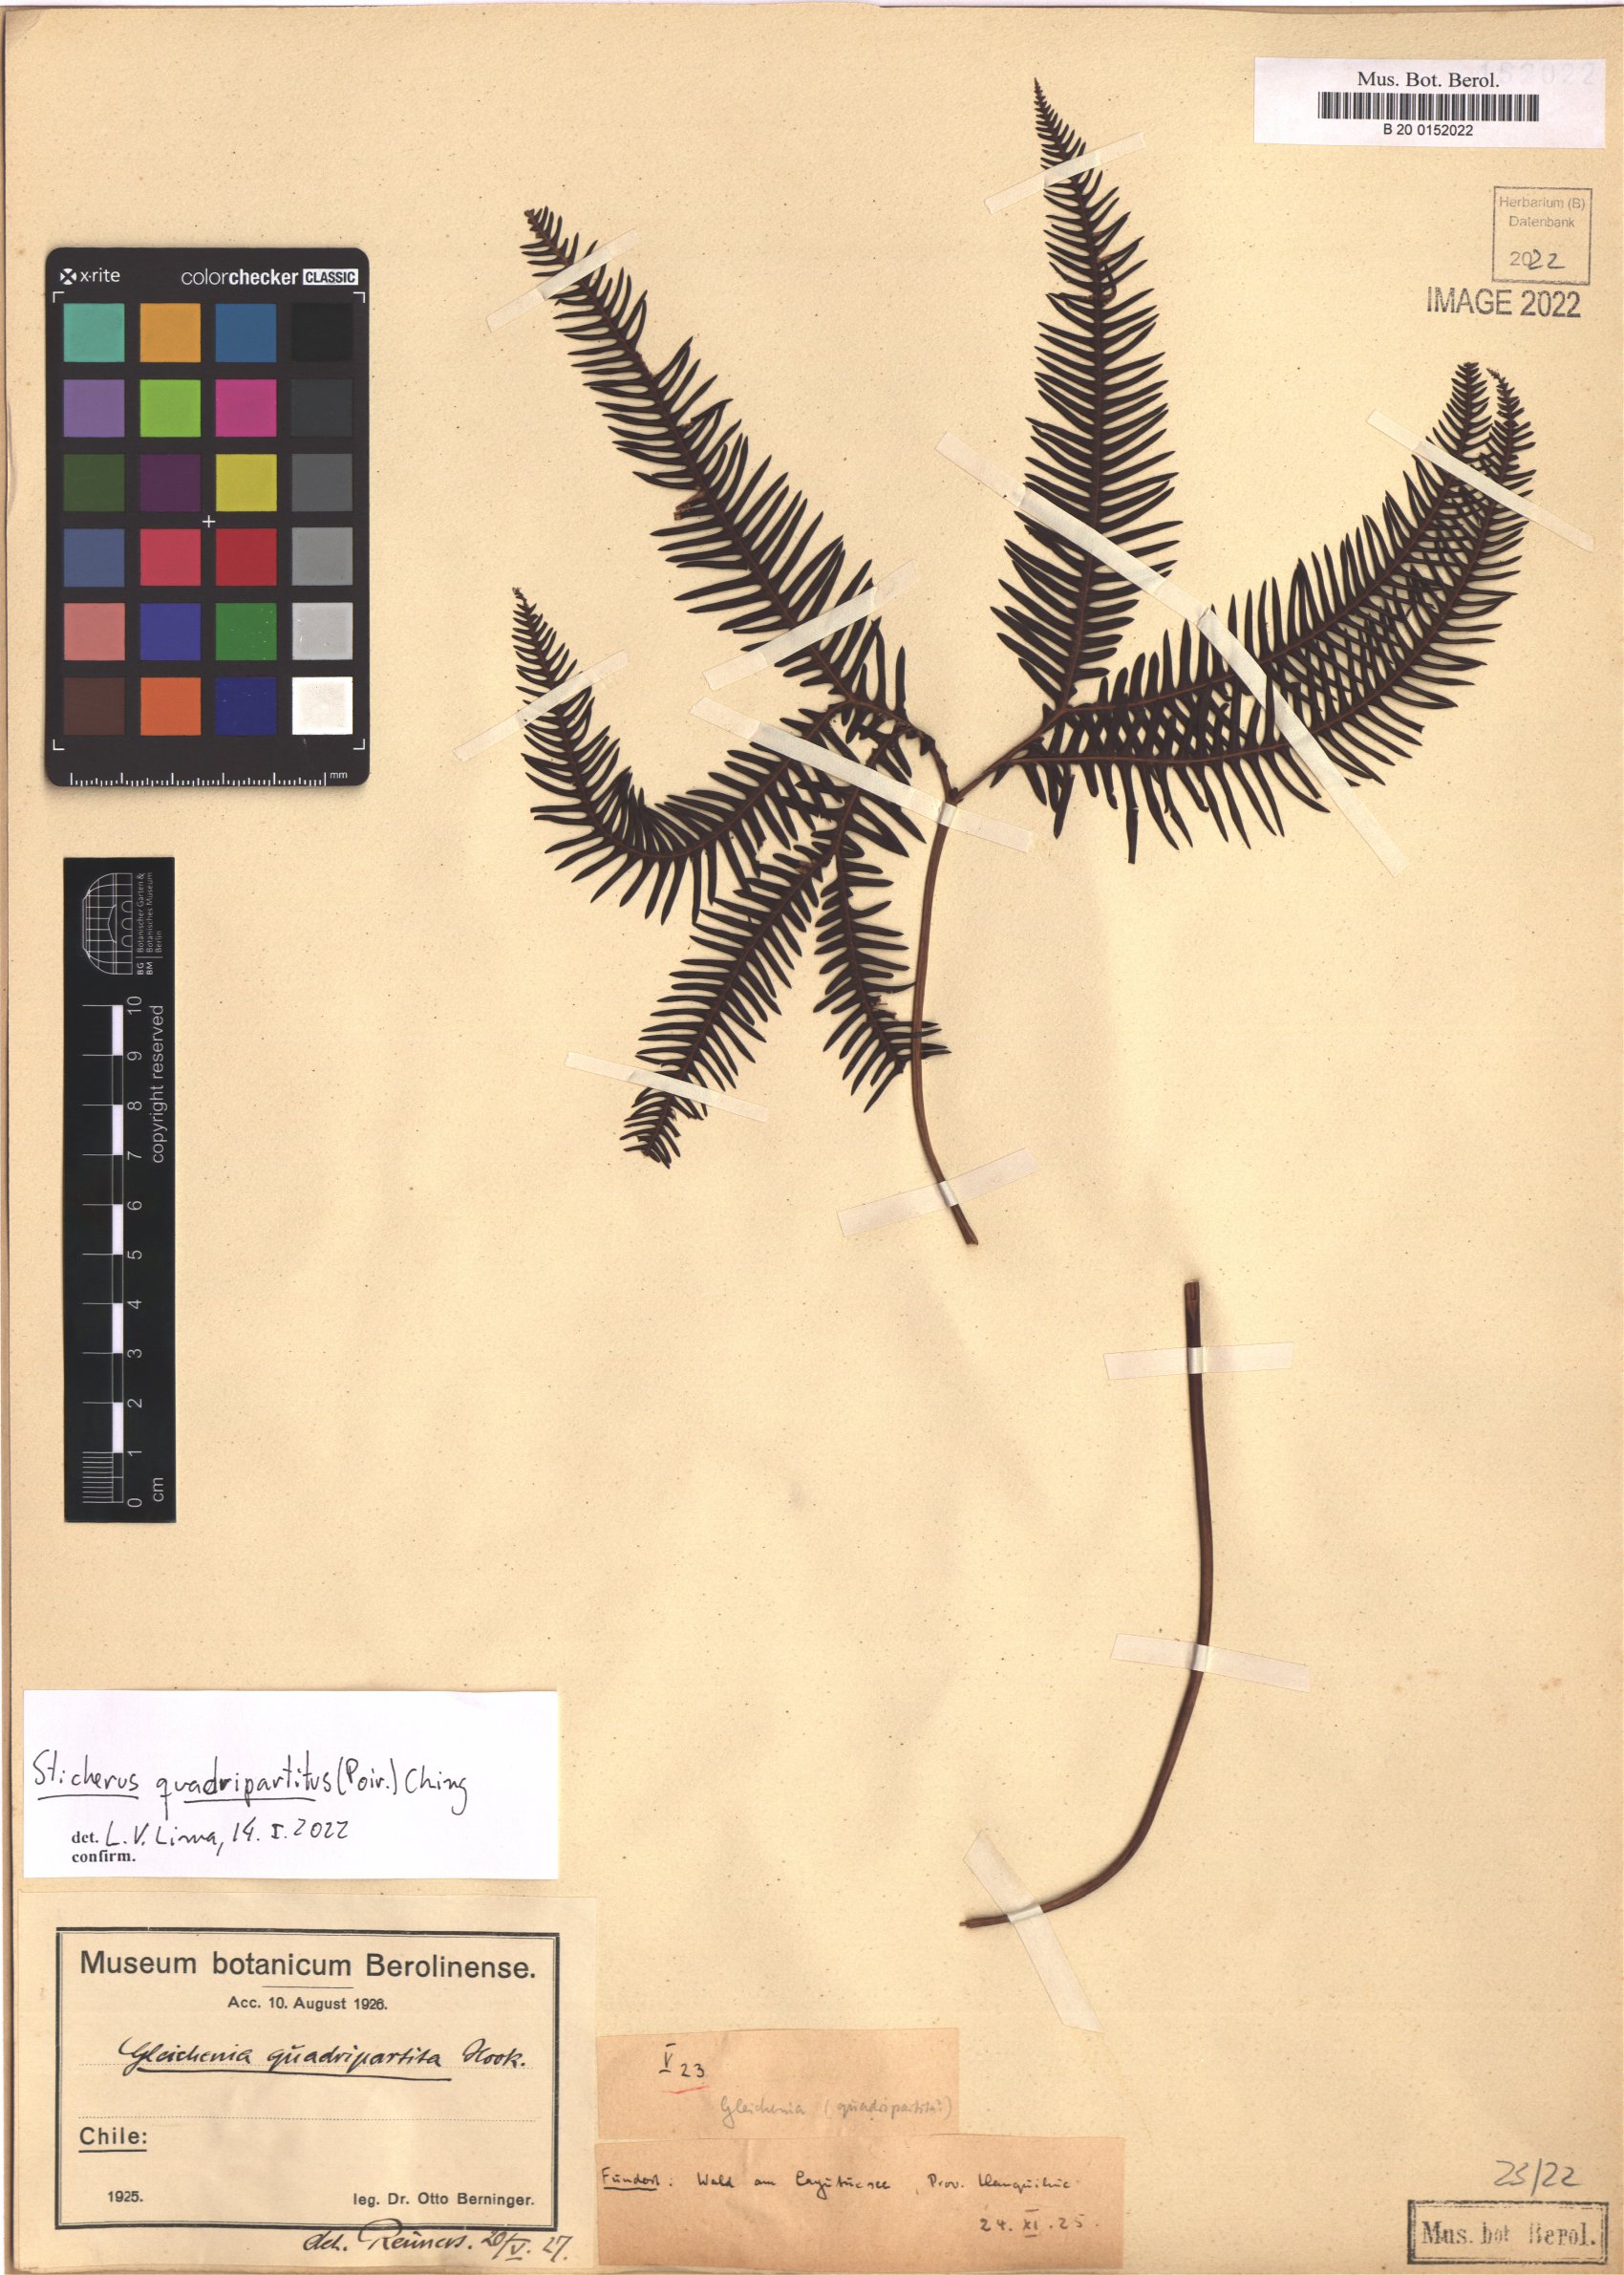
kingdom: Plantae
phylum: Tracheophyta
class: Polypodiopsida
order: Gleicheniales
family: Gleicheniaceae
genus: Sticherus
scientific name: Sticherus quadripartitus
